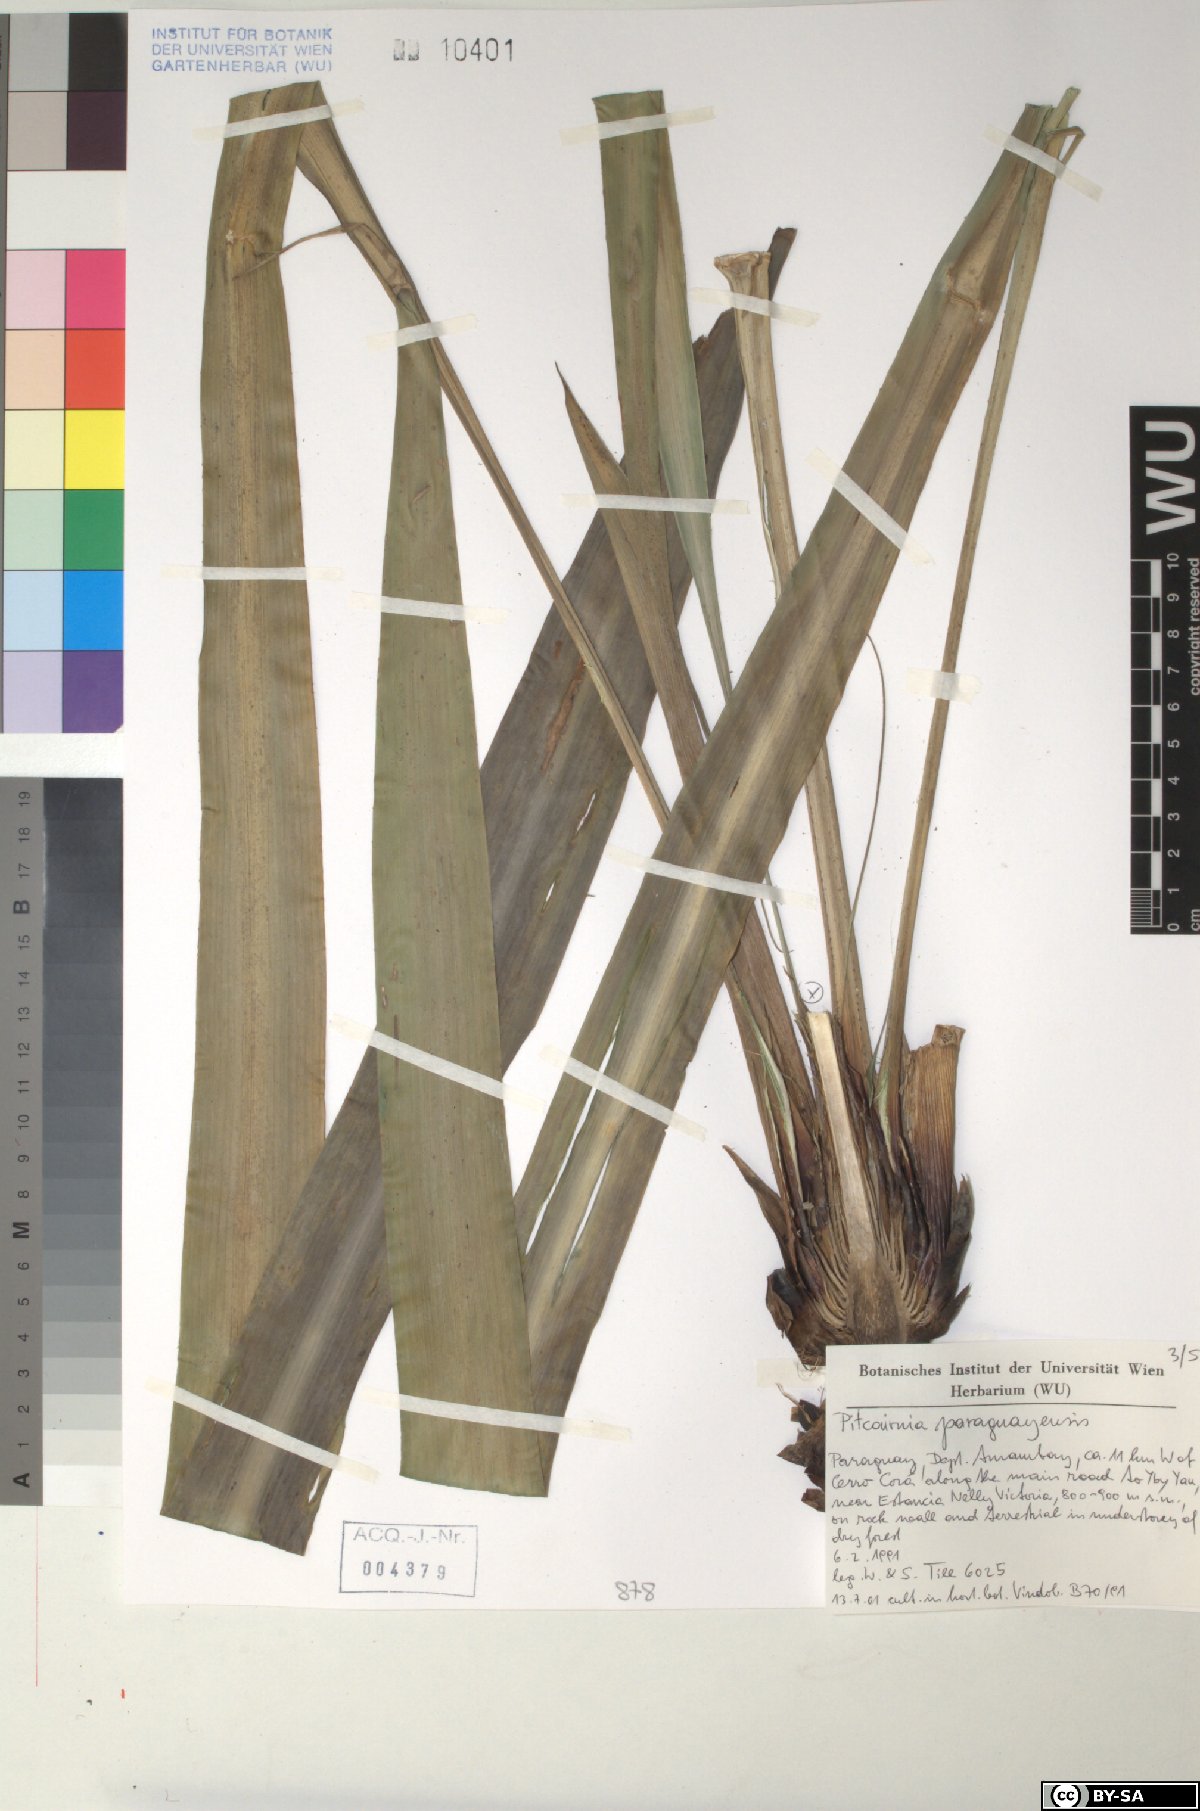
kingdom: Plantae
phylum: Tracheophyta
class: Liliopsida
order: Poales
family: Bromeliaceae
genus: Pitcairnia
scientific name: Pitcairnia paraguayensis
